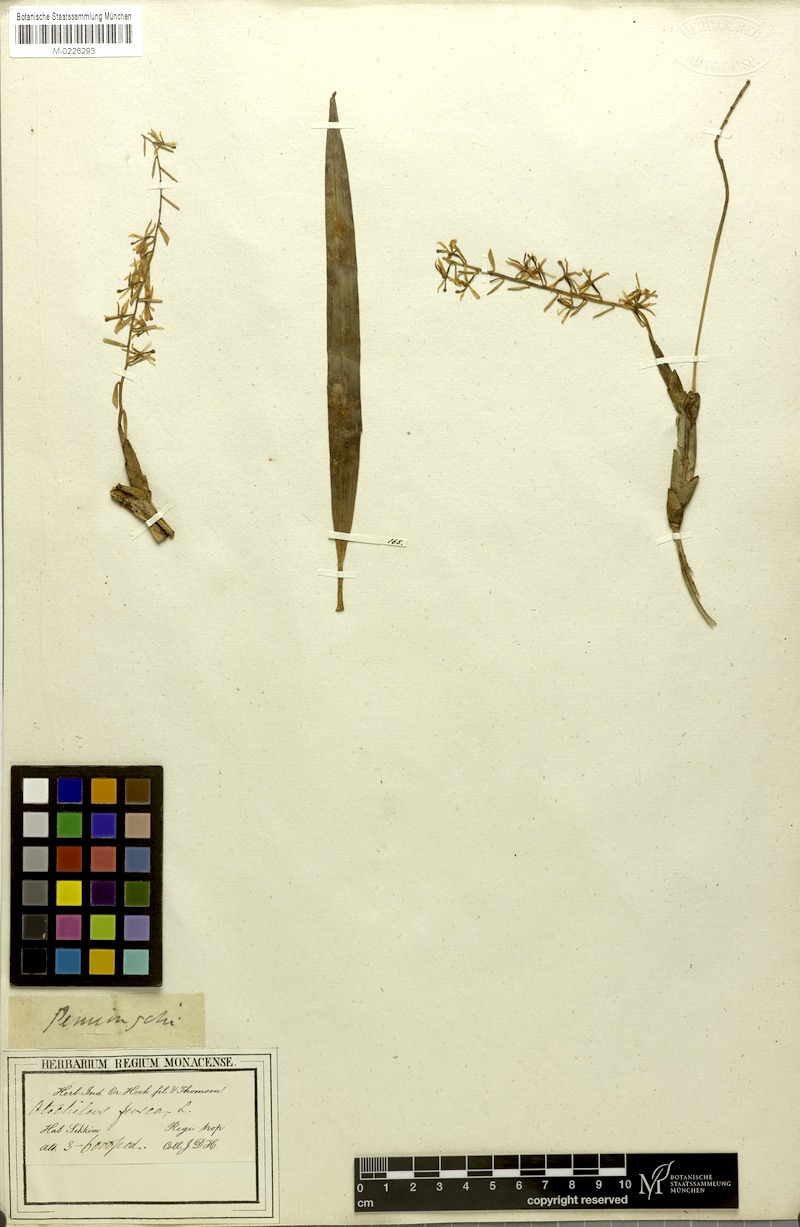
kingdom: Plantae
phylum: Tracheophyta
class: Liliopsida
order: Asparagales
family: Orchidaceae
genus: Coelogyne
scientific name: Coelogyne fusca
